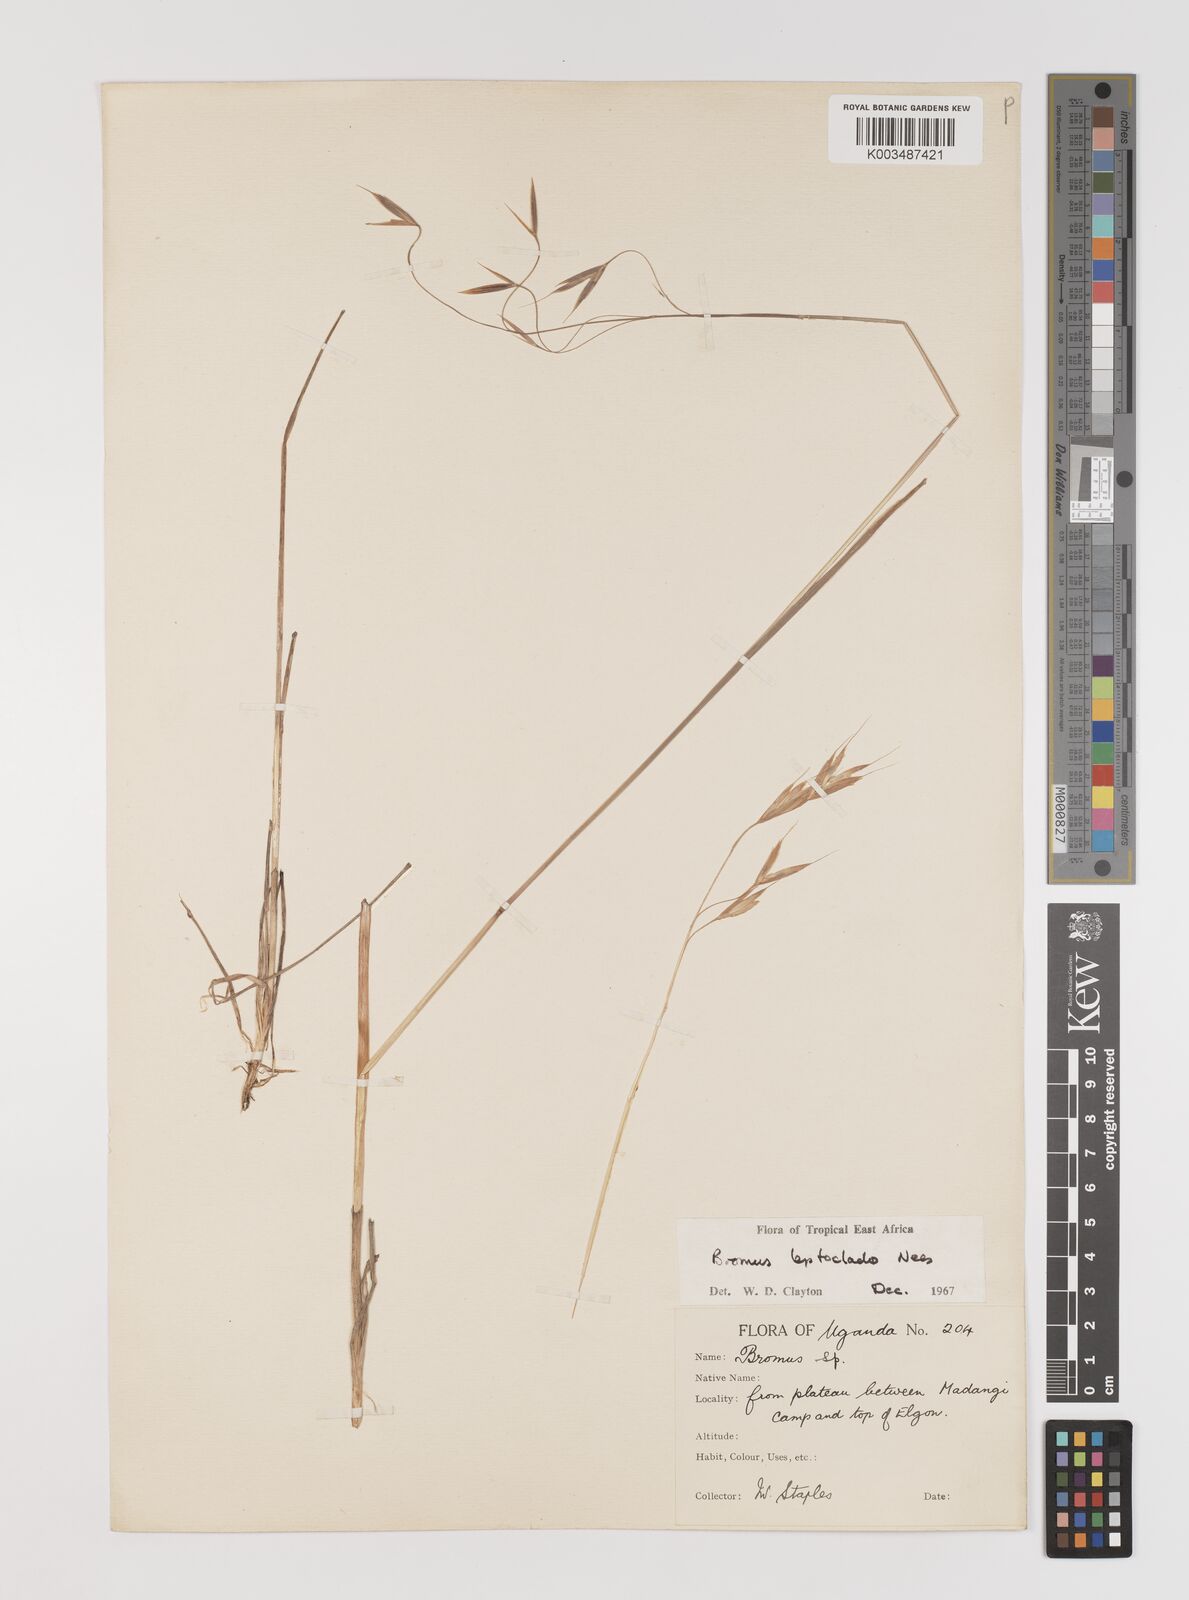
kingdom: Plantae
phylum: Tracheophyta
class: Liliopsida
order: Poales
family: Poaceae
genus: Bromus
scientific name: Bromus leptoclados
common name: Mountain bromegrass
